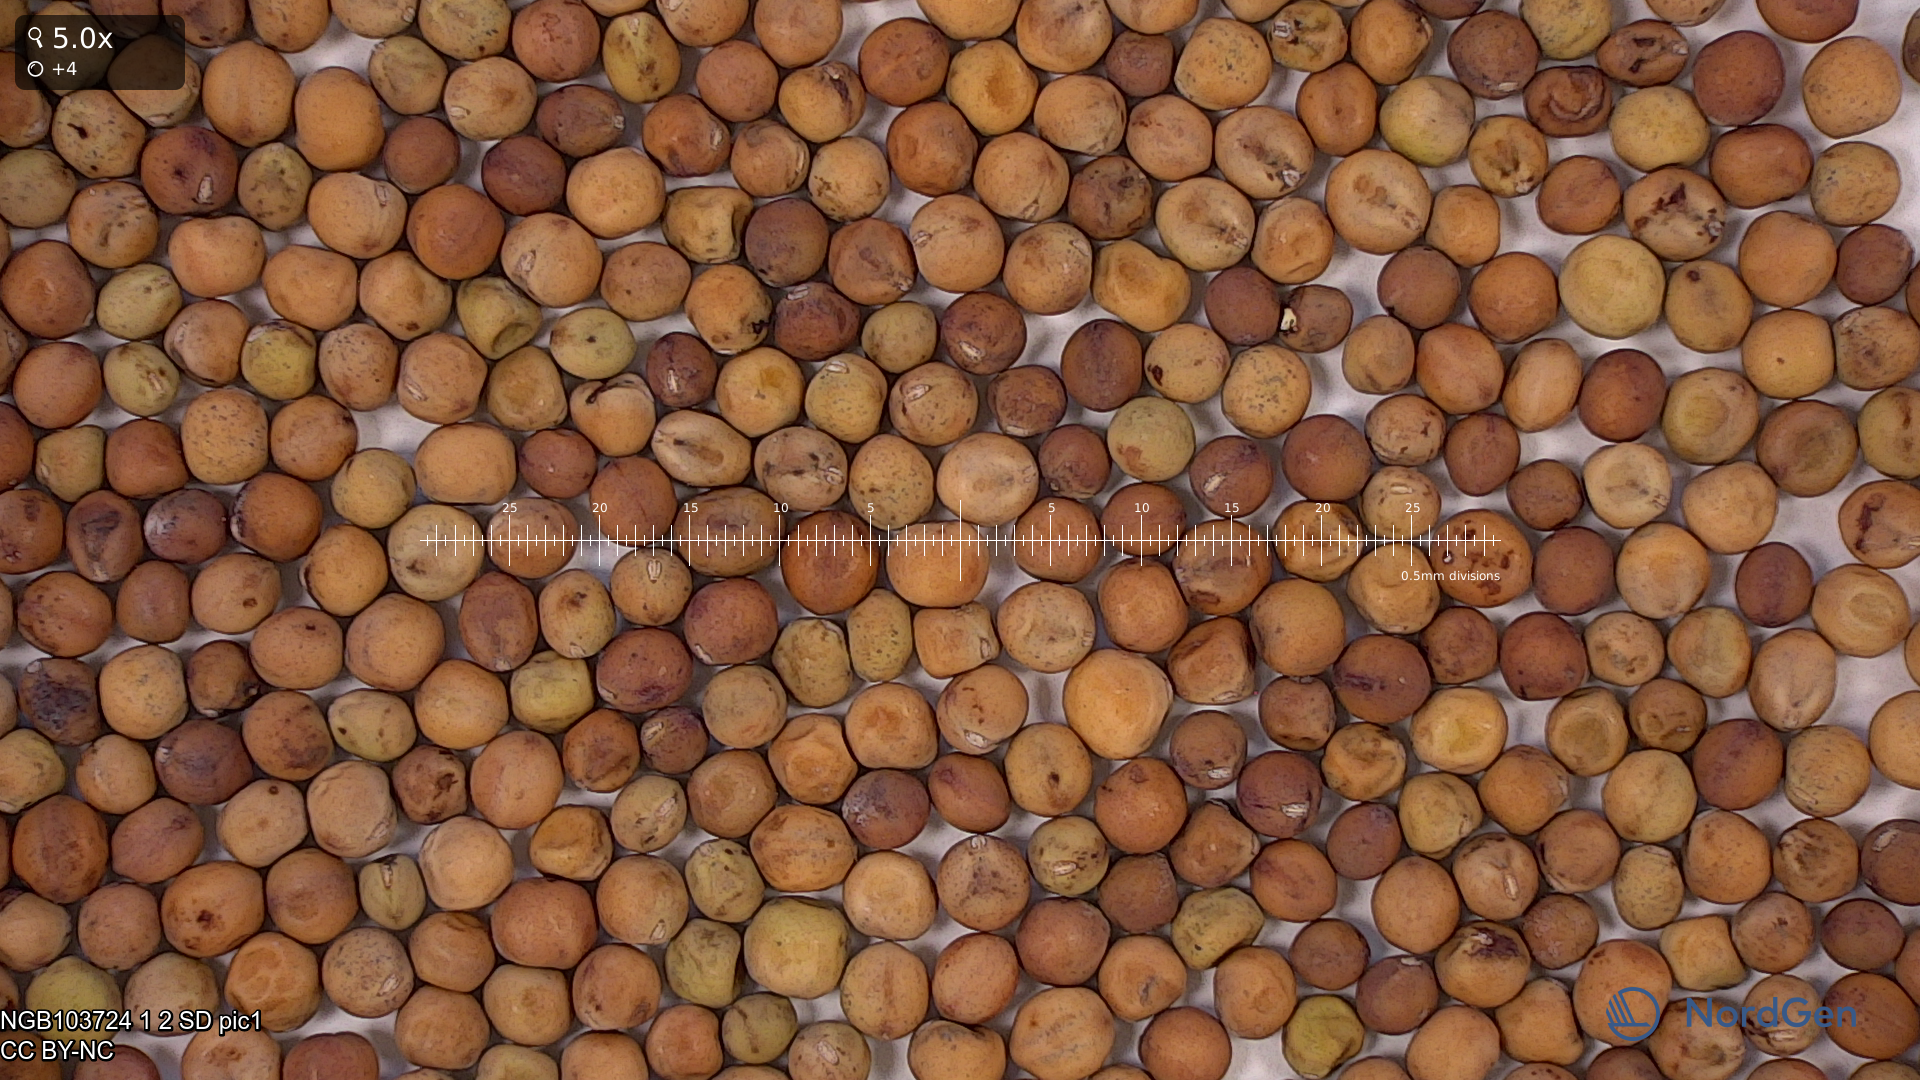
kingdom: Plantae
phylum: Tracheophyta
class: Magnoliopsida
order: Fabales
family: Fabaceae
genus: Lathyrus
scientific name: Lathyrus oleraceus
